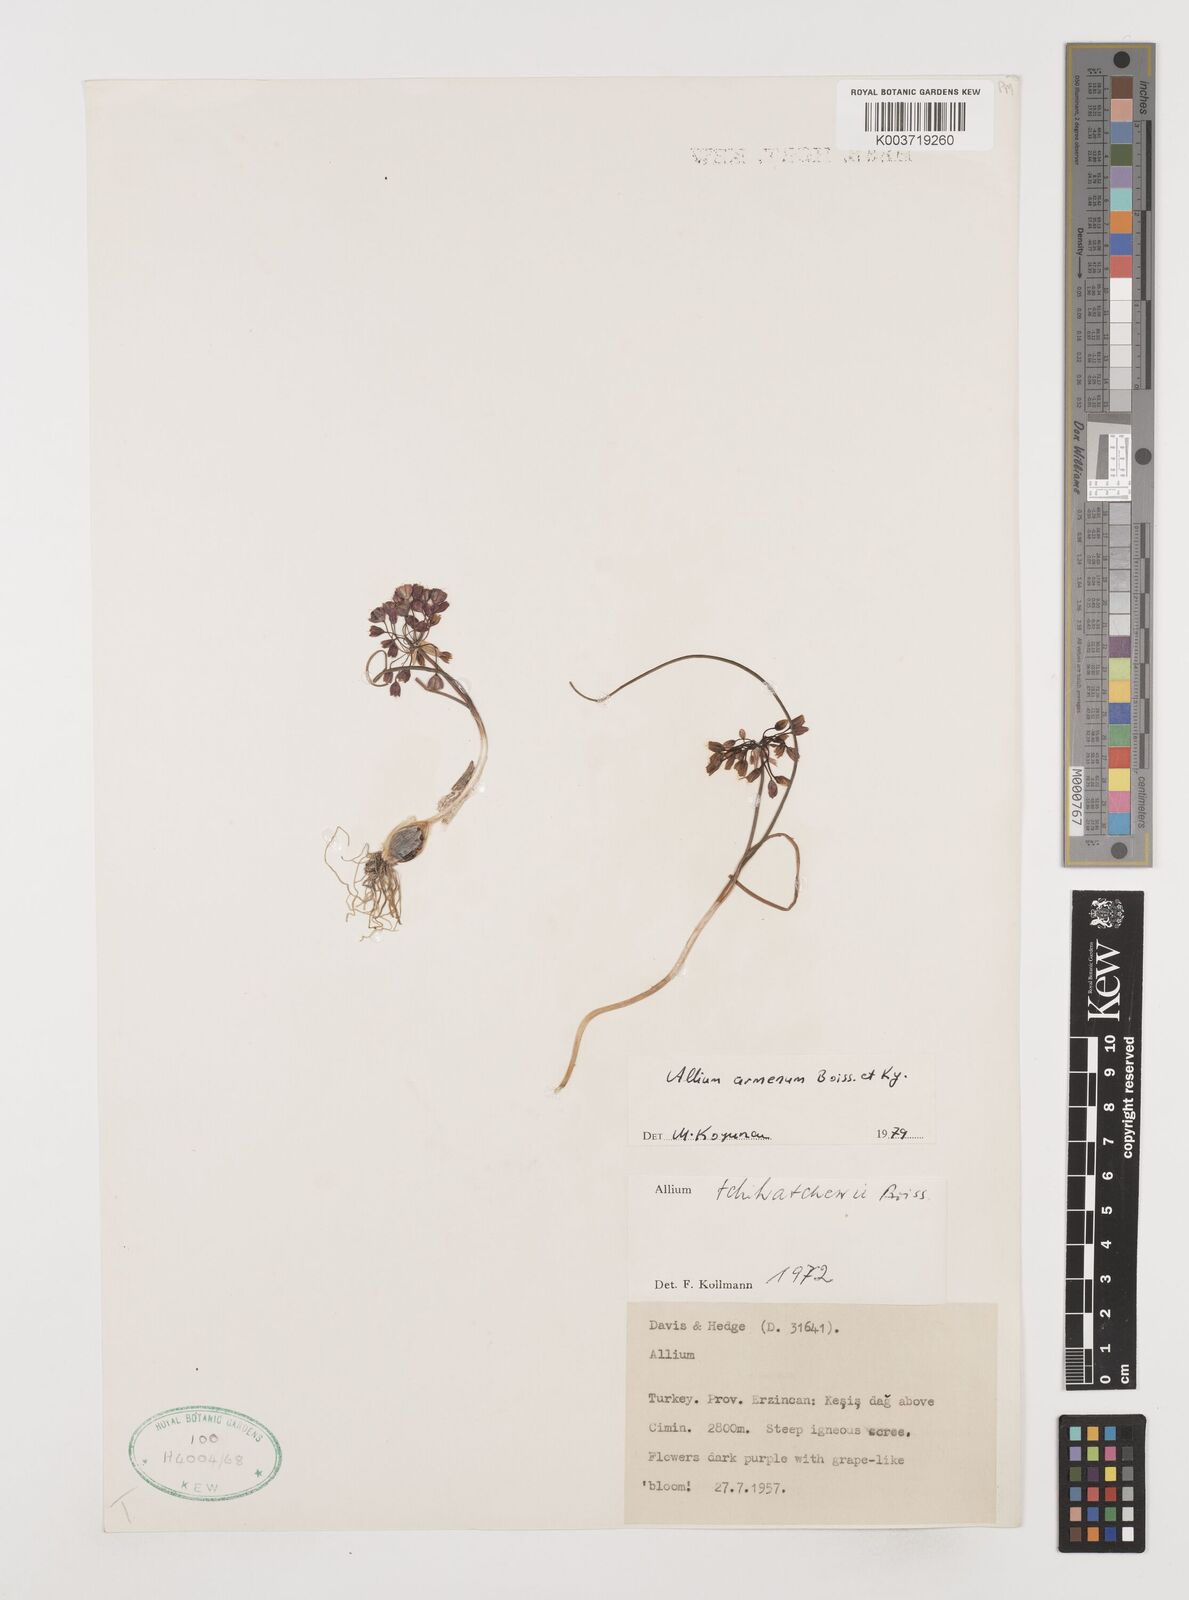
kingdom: Plantae
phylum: Tracheophyta
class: Liliopsida
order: Asparagales
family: Amaryllidaceae
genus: Allium
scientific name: Allium armenum
